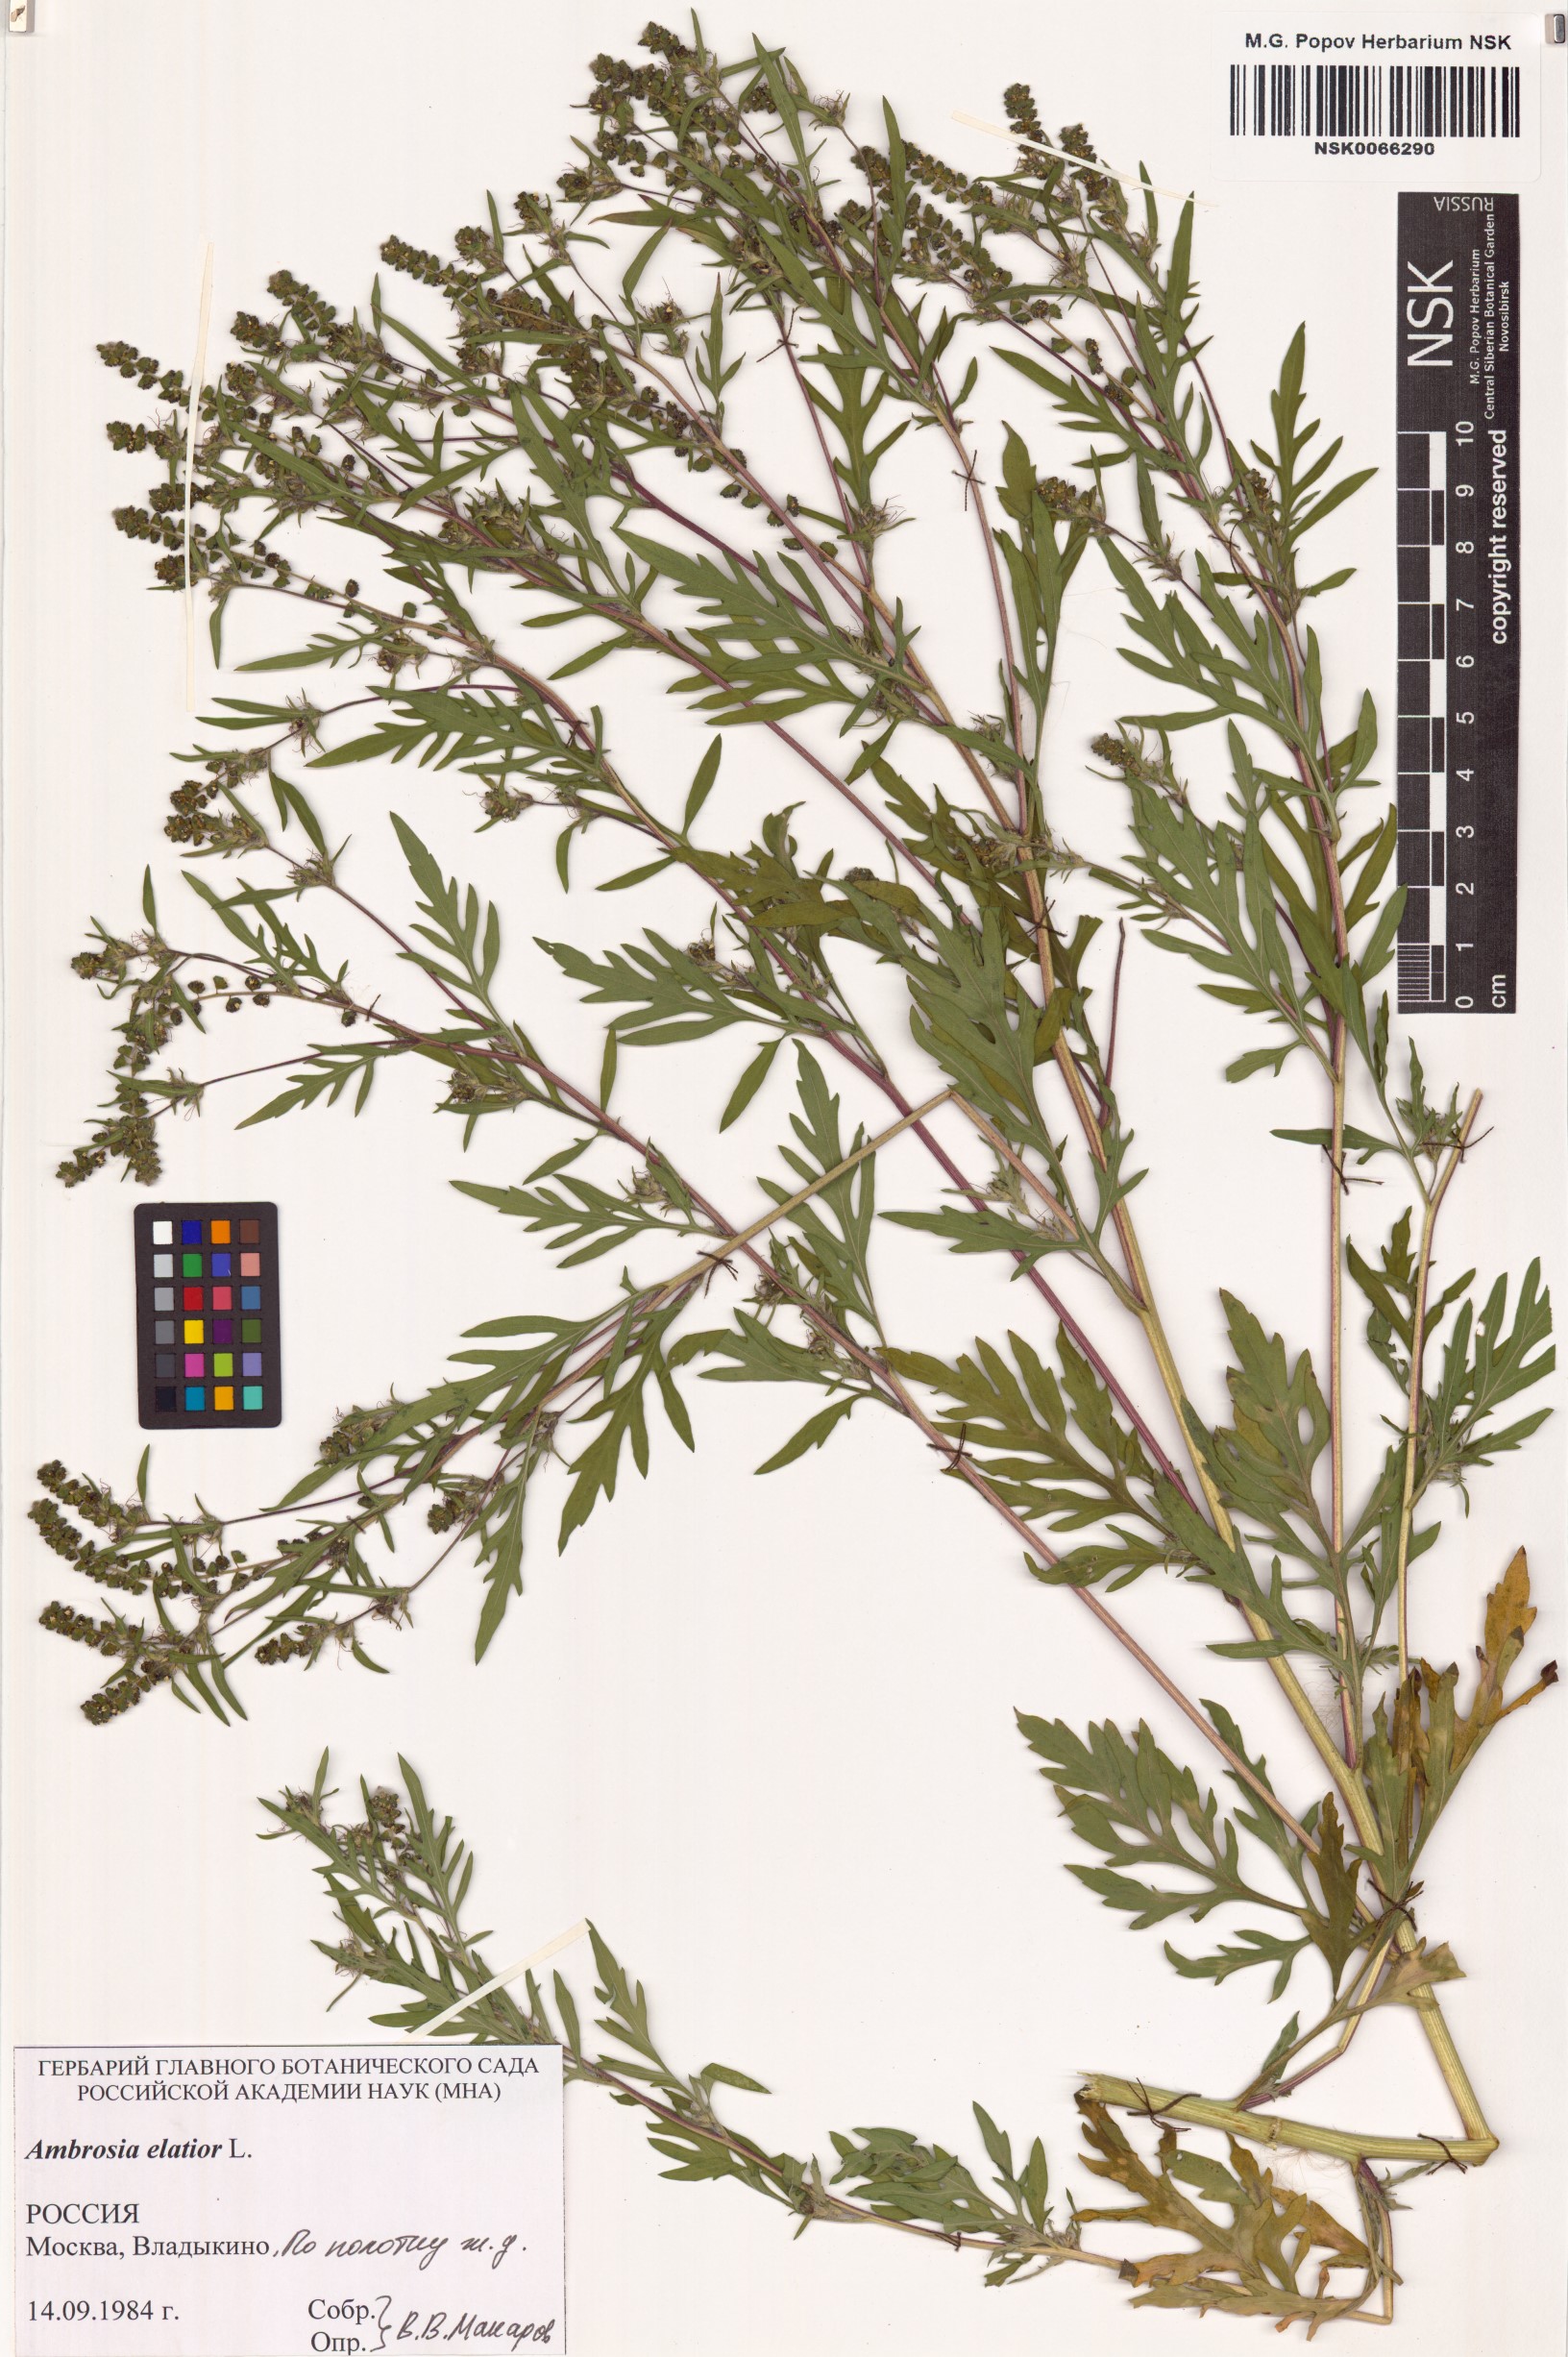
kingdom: Plantae
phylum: Tracheophyta
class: Magnoliopsida
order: Asterales
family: Asteraceae
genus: Ambrosia
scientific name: Ambrosia artemisiifolia
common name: Annual ragweed
